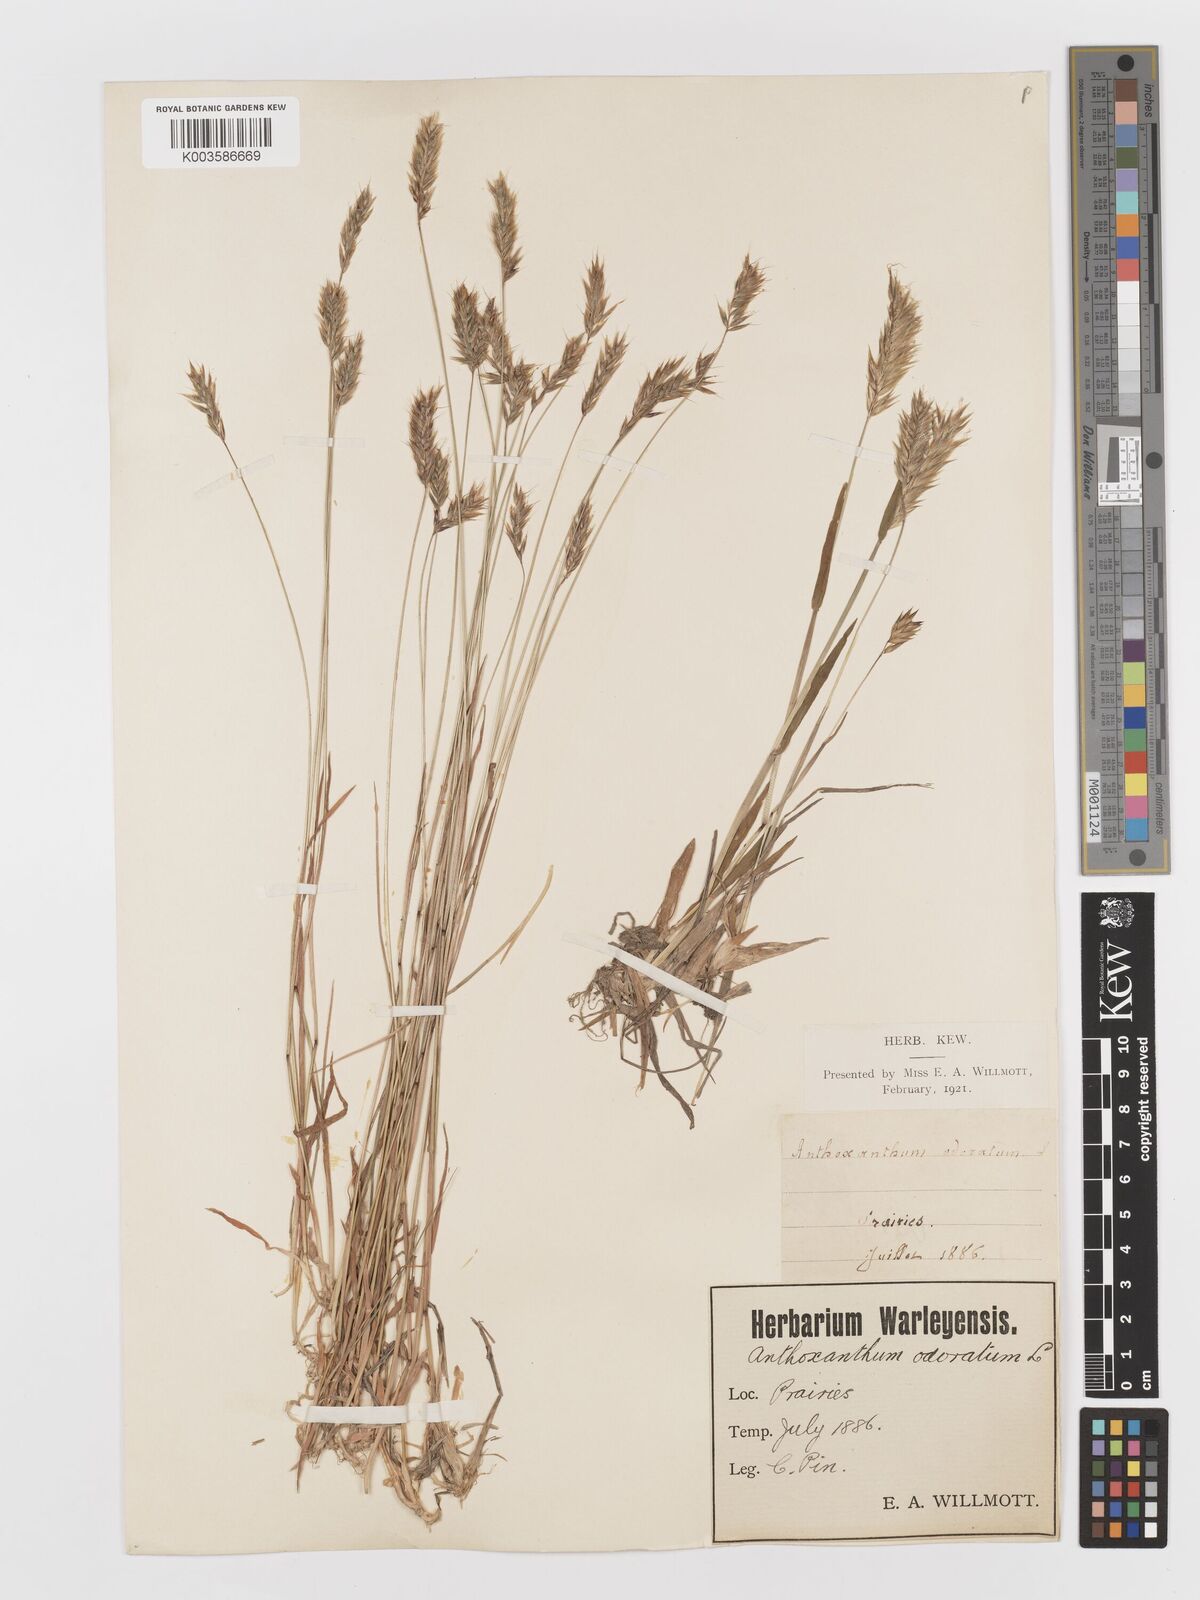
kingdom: Plantae
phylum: Tracheophyta
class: Liliopsida
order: Poales
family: Poaceae
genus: Anthoxanthum
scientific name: Anthoxanthum odoratum
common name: Sweet vernalgrass
